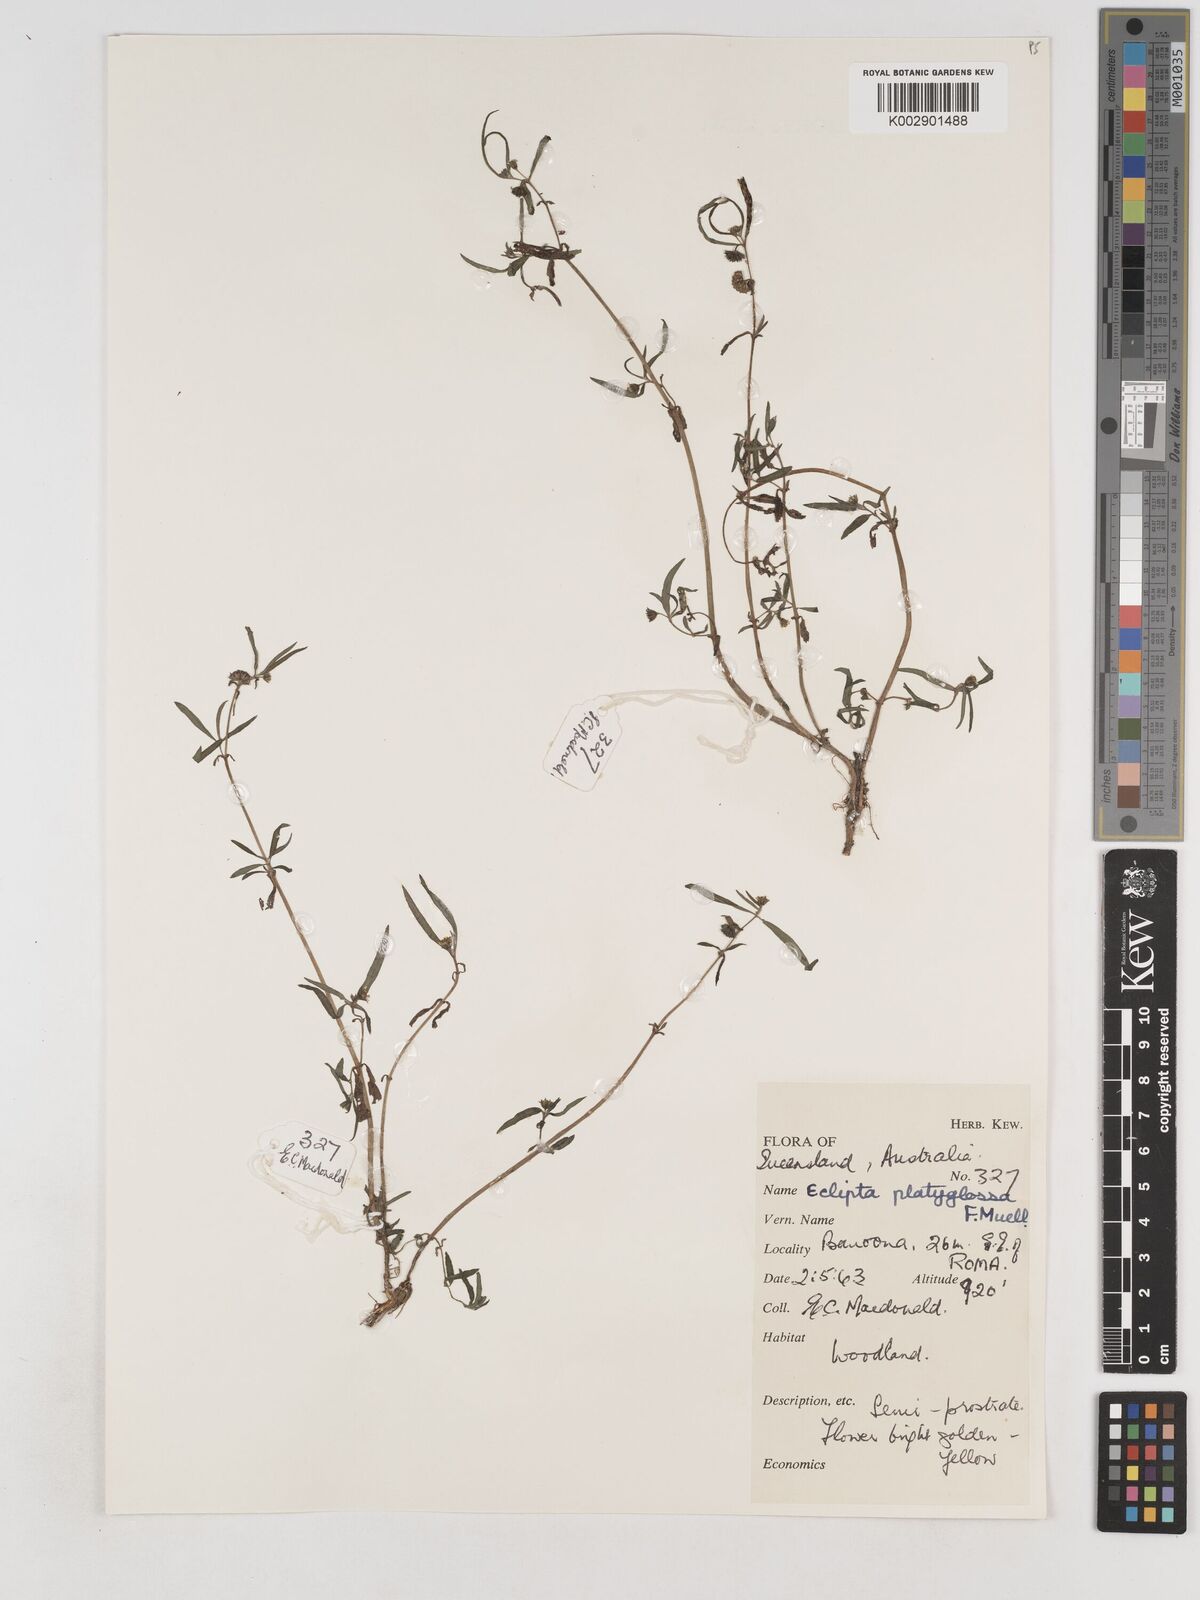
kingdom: Plantae
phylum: Tracheophyta
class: Magnoliopsida
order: Asterales
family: Asteraceae
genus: Eclipta
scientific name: Eclipta platyglossa
